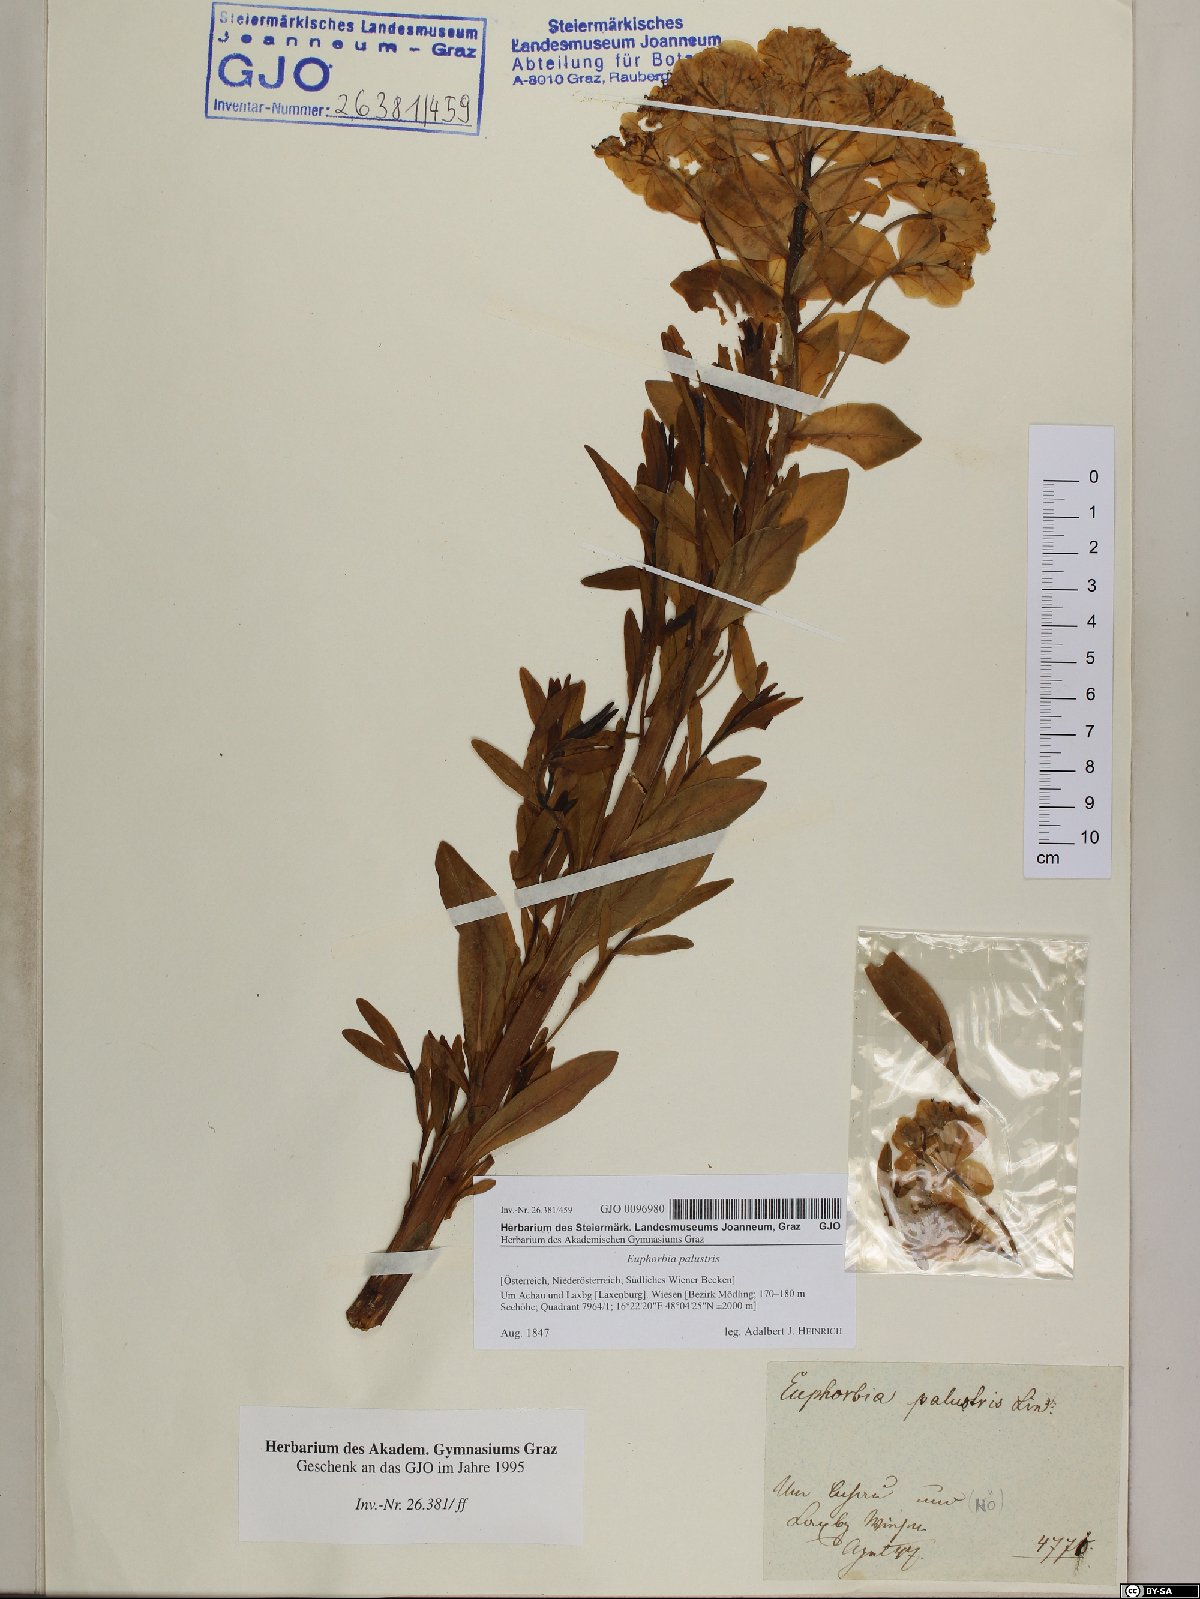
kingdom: Plantae
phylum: Tracheophyta
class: Magnoliopsida
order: Malpighiales
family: Euphorbiaceae
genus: Euphorbia
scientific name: Euphorbia palustris
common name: Marsh spurge
